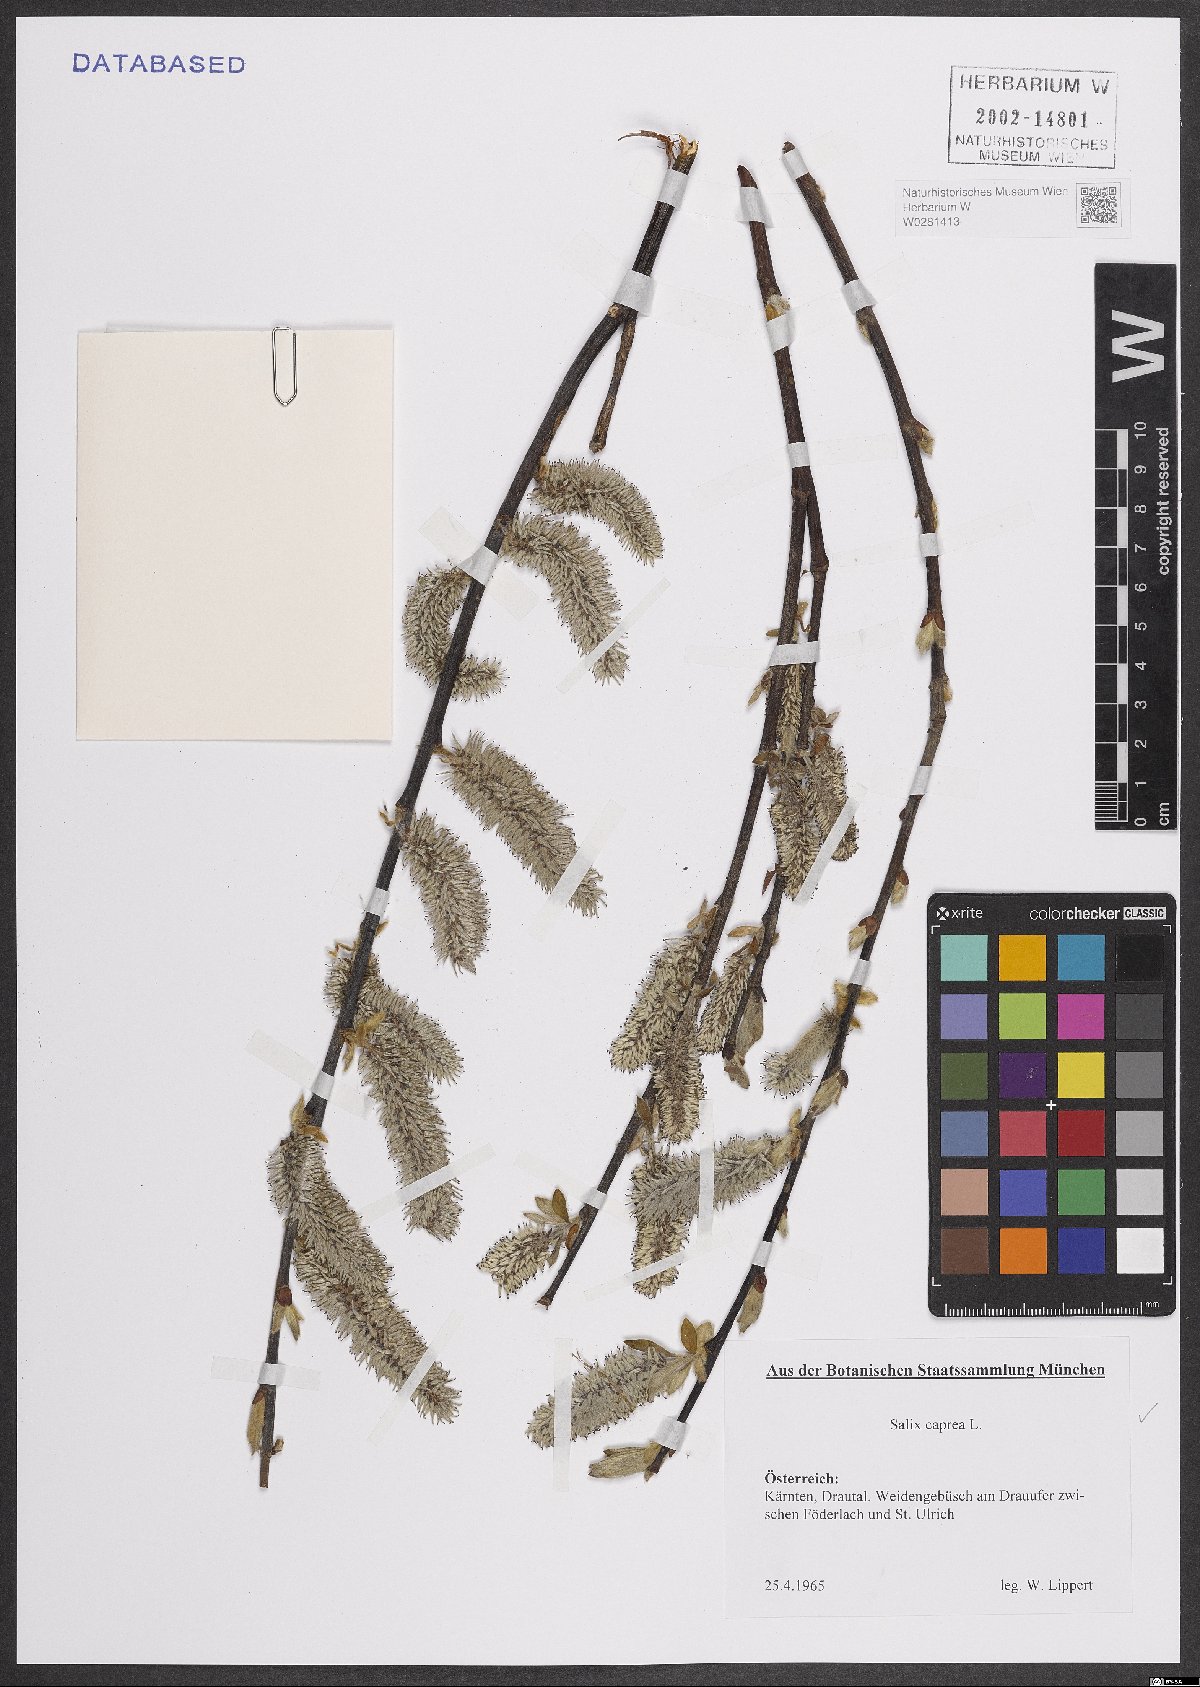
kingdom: Plantae
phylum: Tracheophyta
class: Magnoliopsida
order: Malpighiales
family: Salicaceae
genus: Salix
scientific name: Salix caprea
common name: Goat willow
